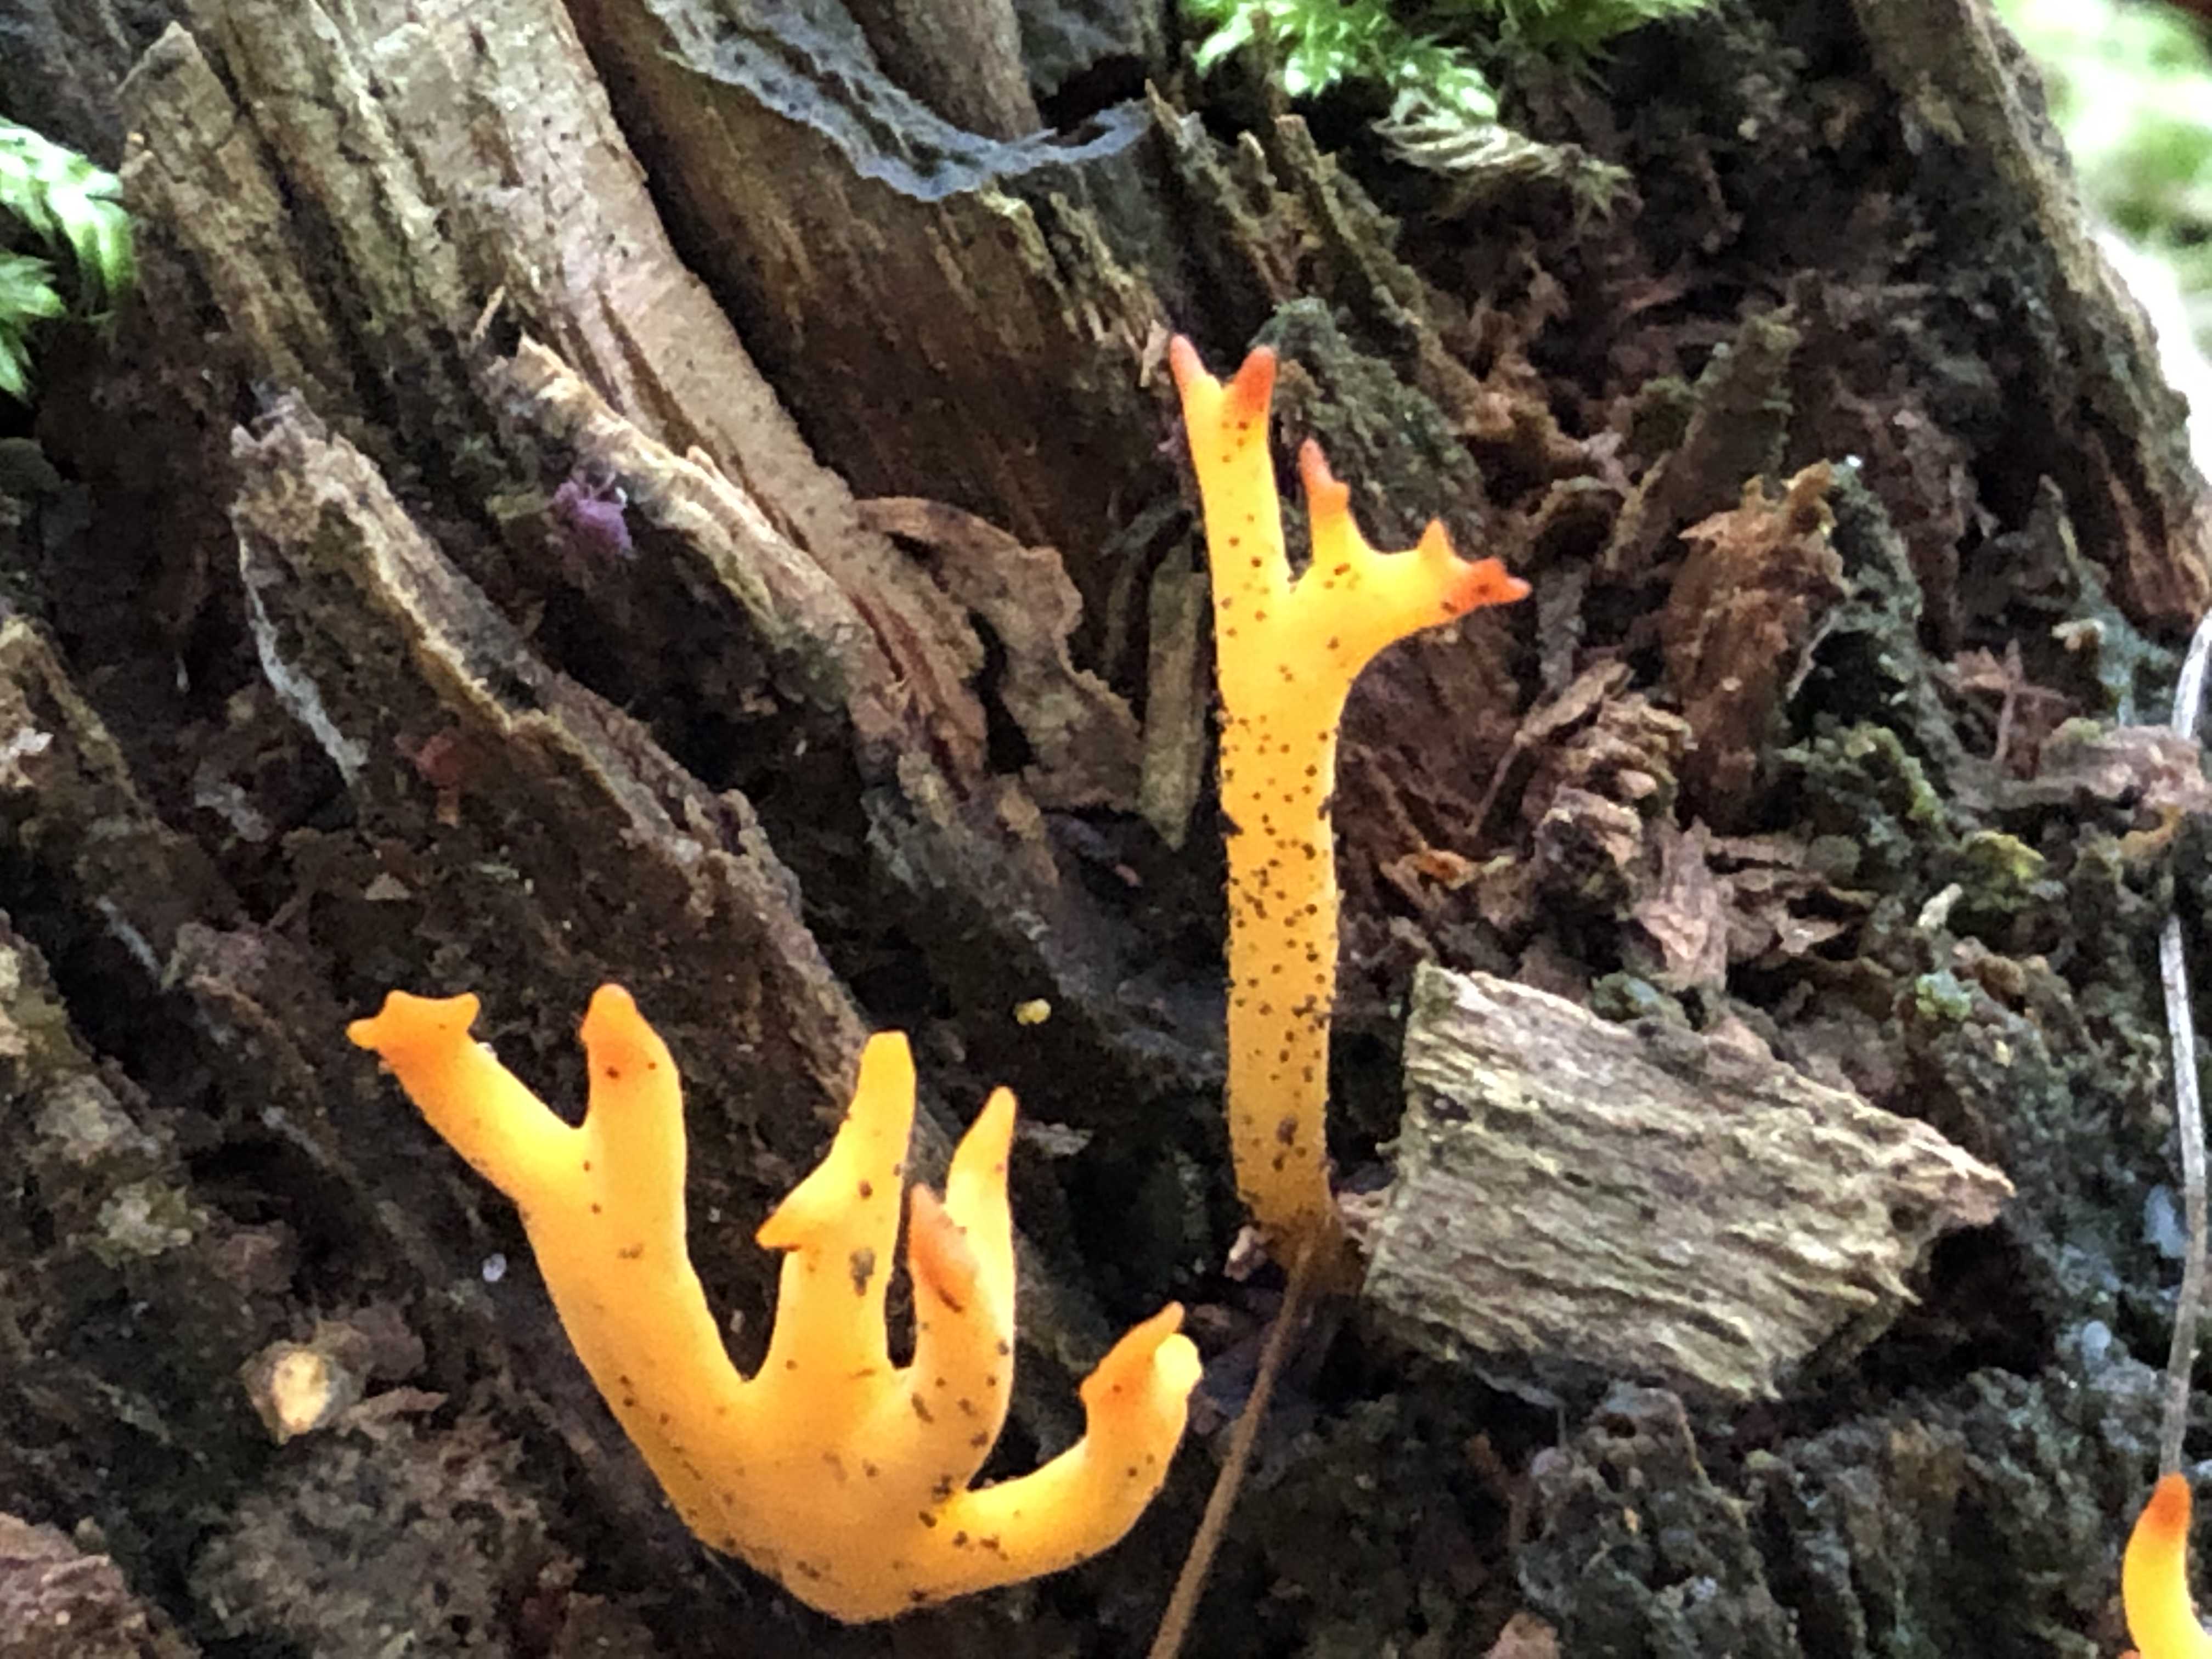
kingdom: Fungi
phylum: Basidiomycota
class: Dacrymycetes
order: Dacrymycetales
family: Dacrymycetaceae
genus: Calocera
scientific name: Calocera viscosa
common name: almindelig guldgaffel
